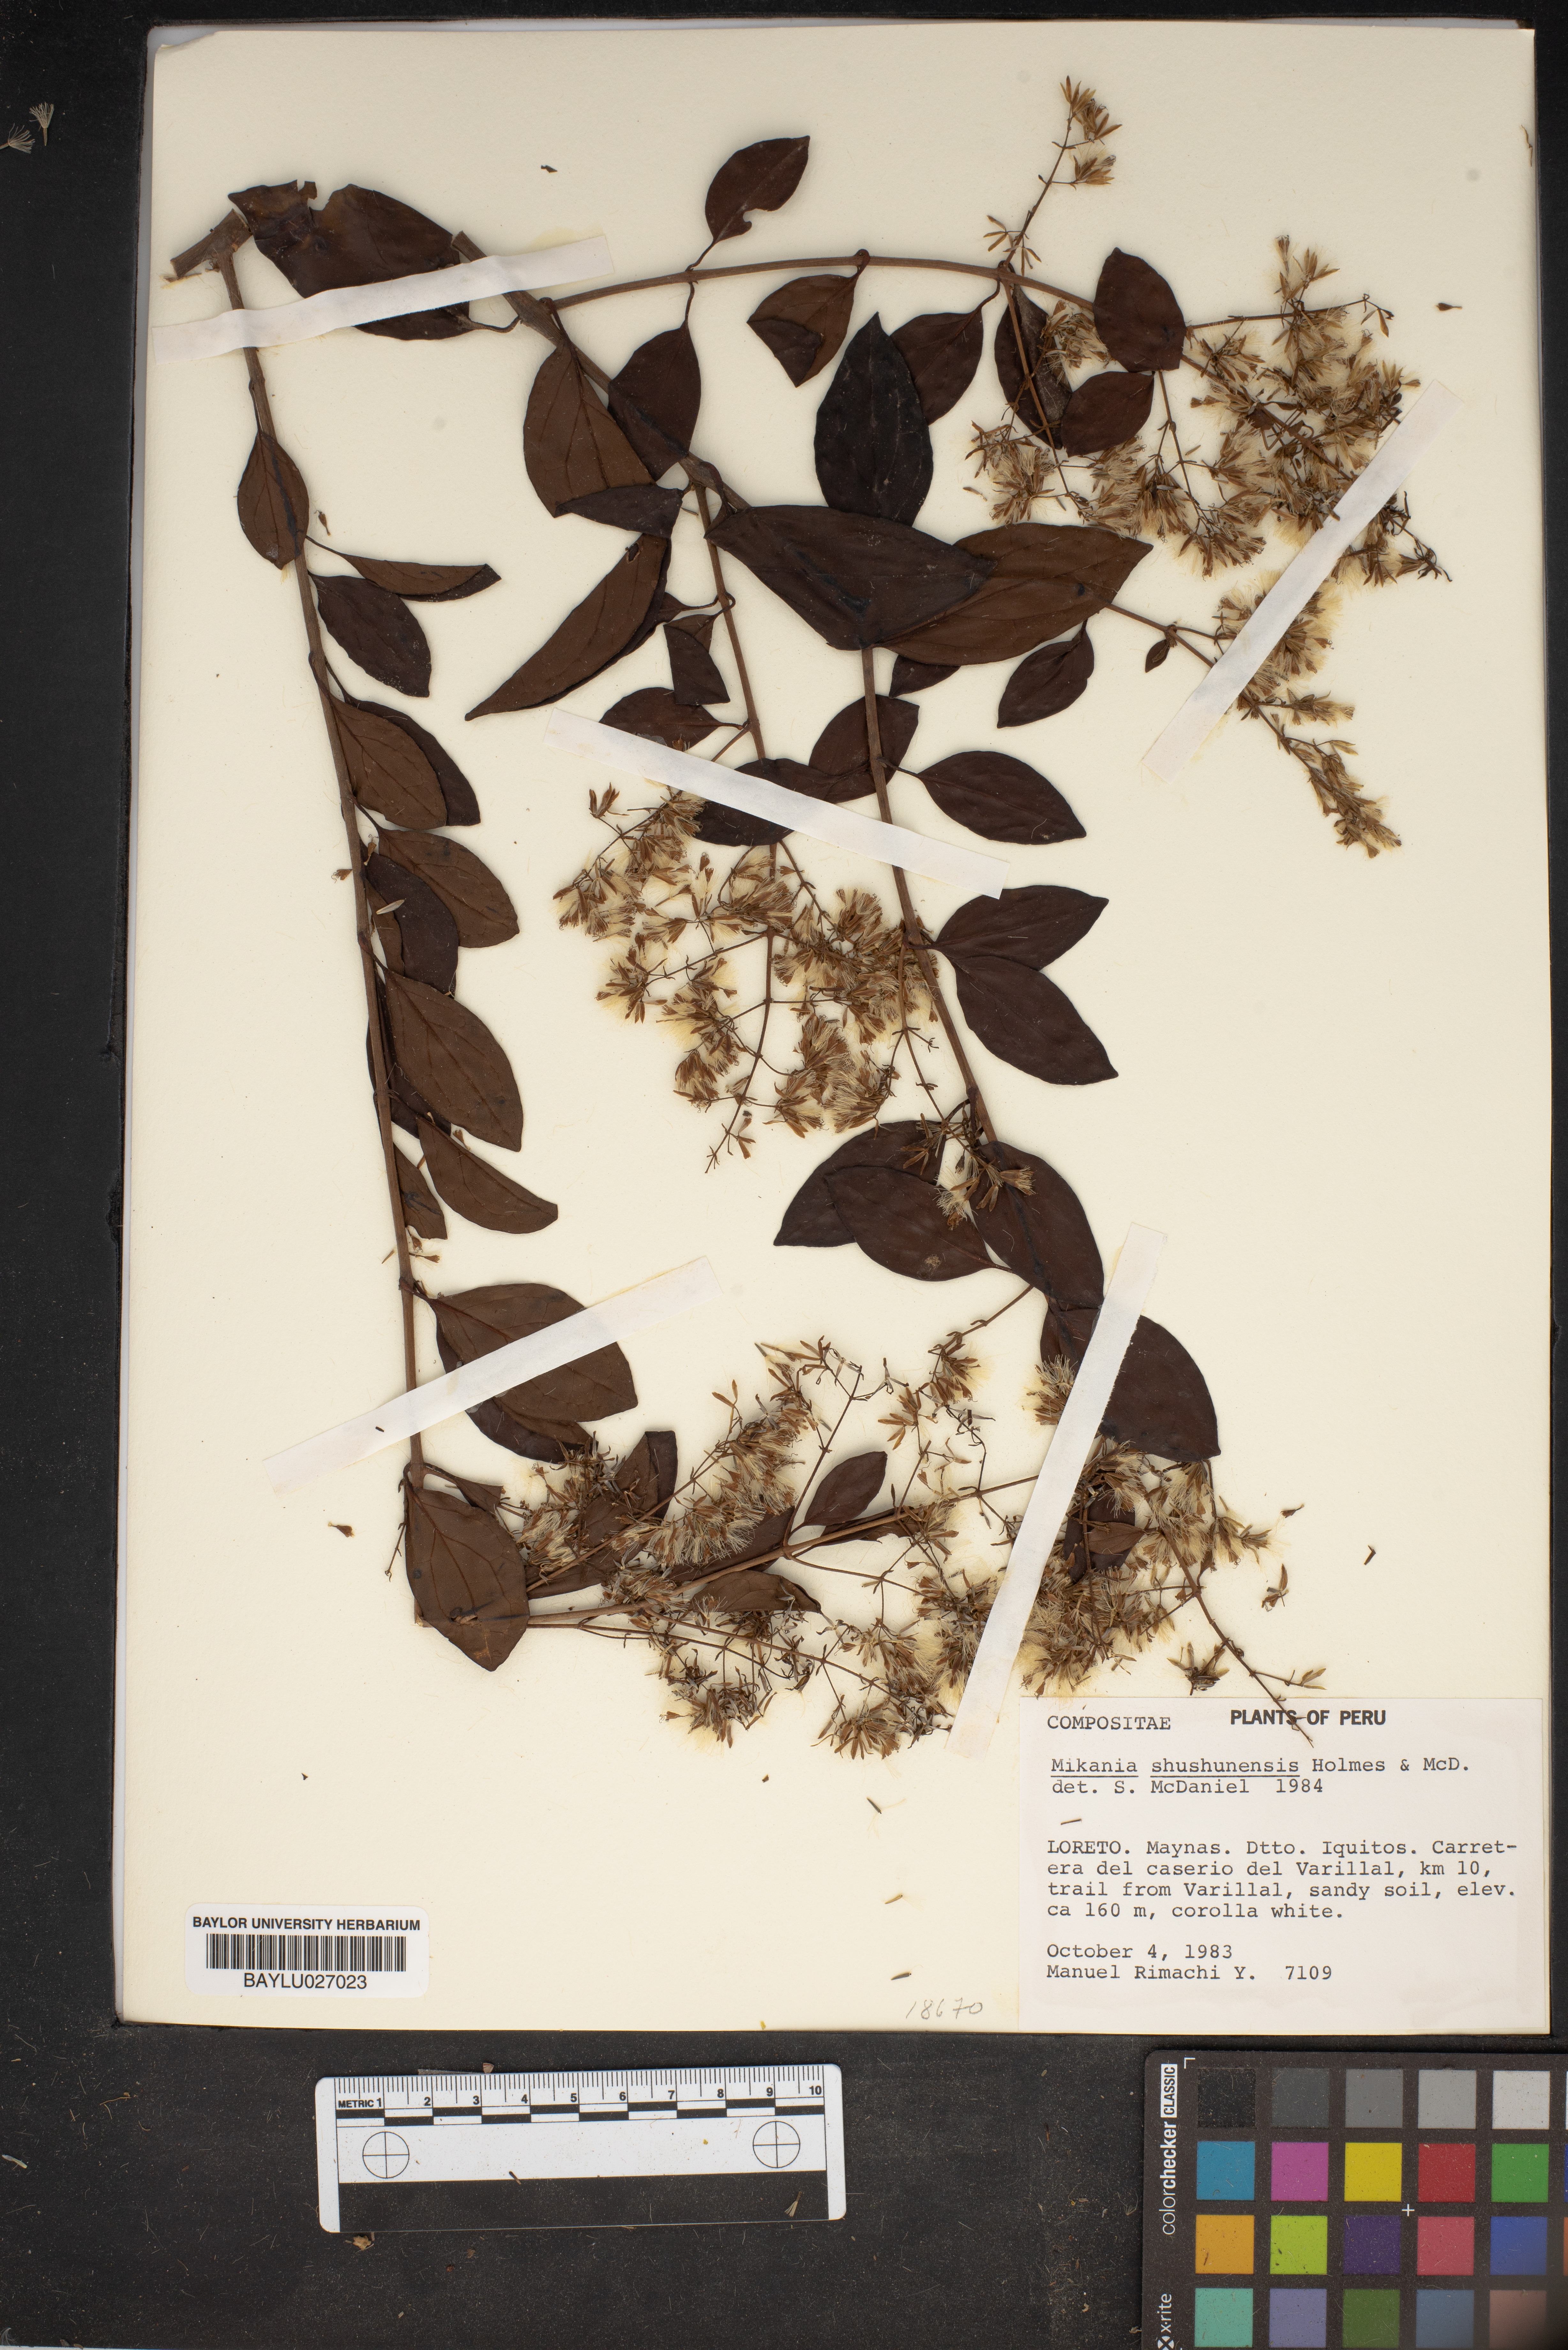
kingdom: Plantae
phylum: Tracheophyta
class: Magnoliopsida
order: Asterales
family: Asteraceae
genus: Mikania
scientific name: Mikania shushunensis
